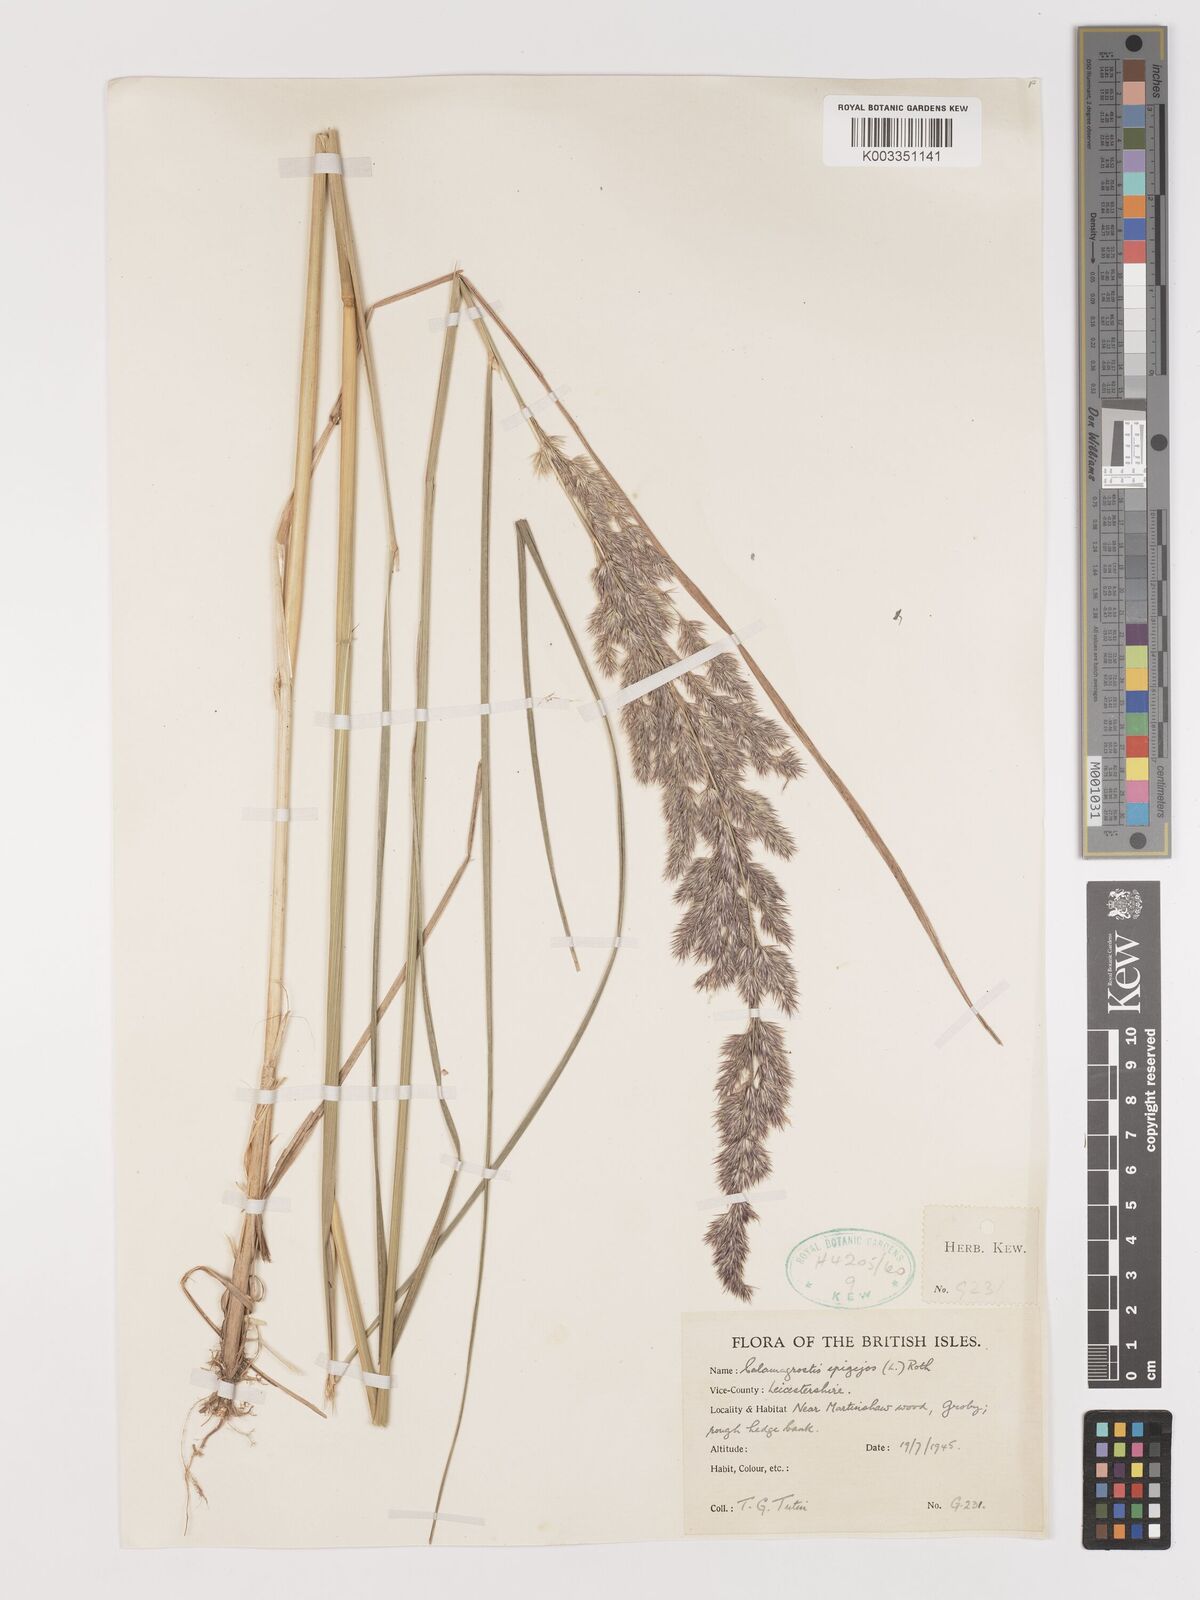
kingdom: Plantae
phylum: Tracheophyta
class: Liliopsida
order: Poales
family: Poaceae
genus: Calamagrostis
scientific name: Calamagrostis
